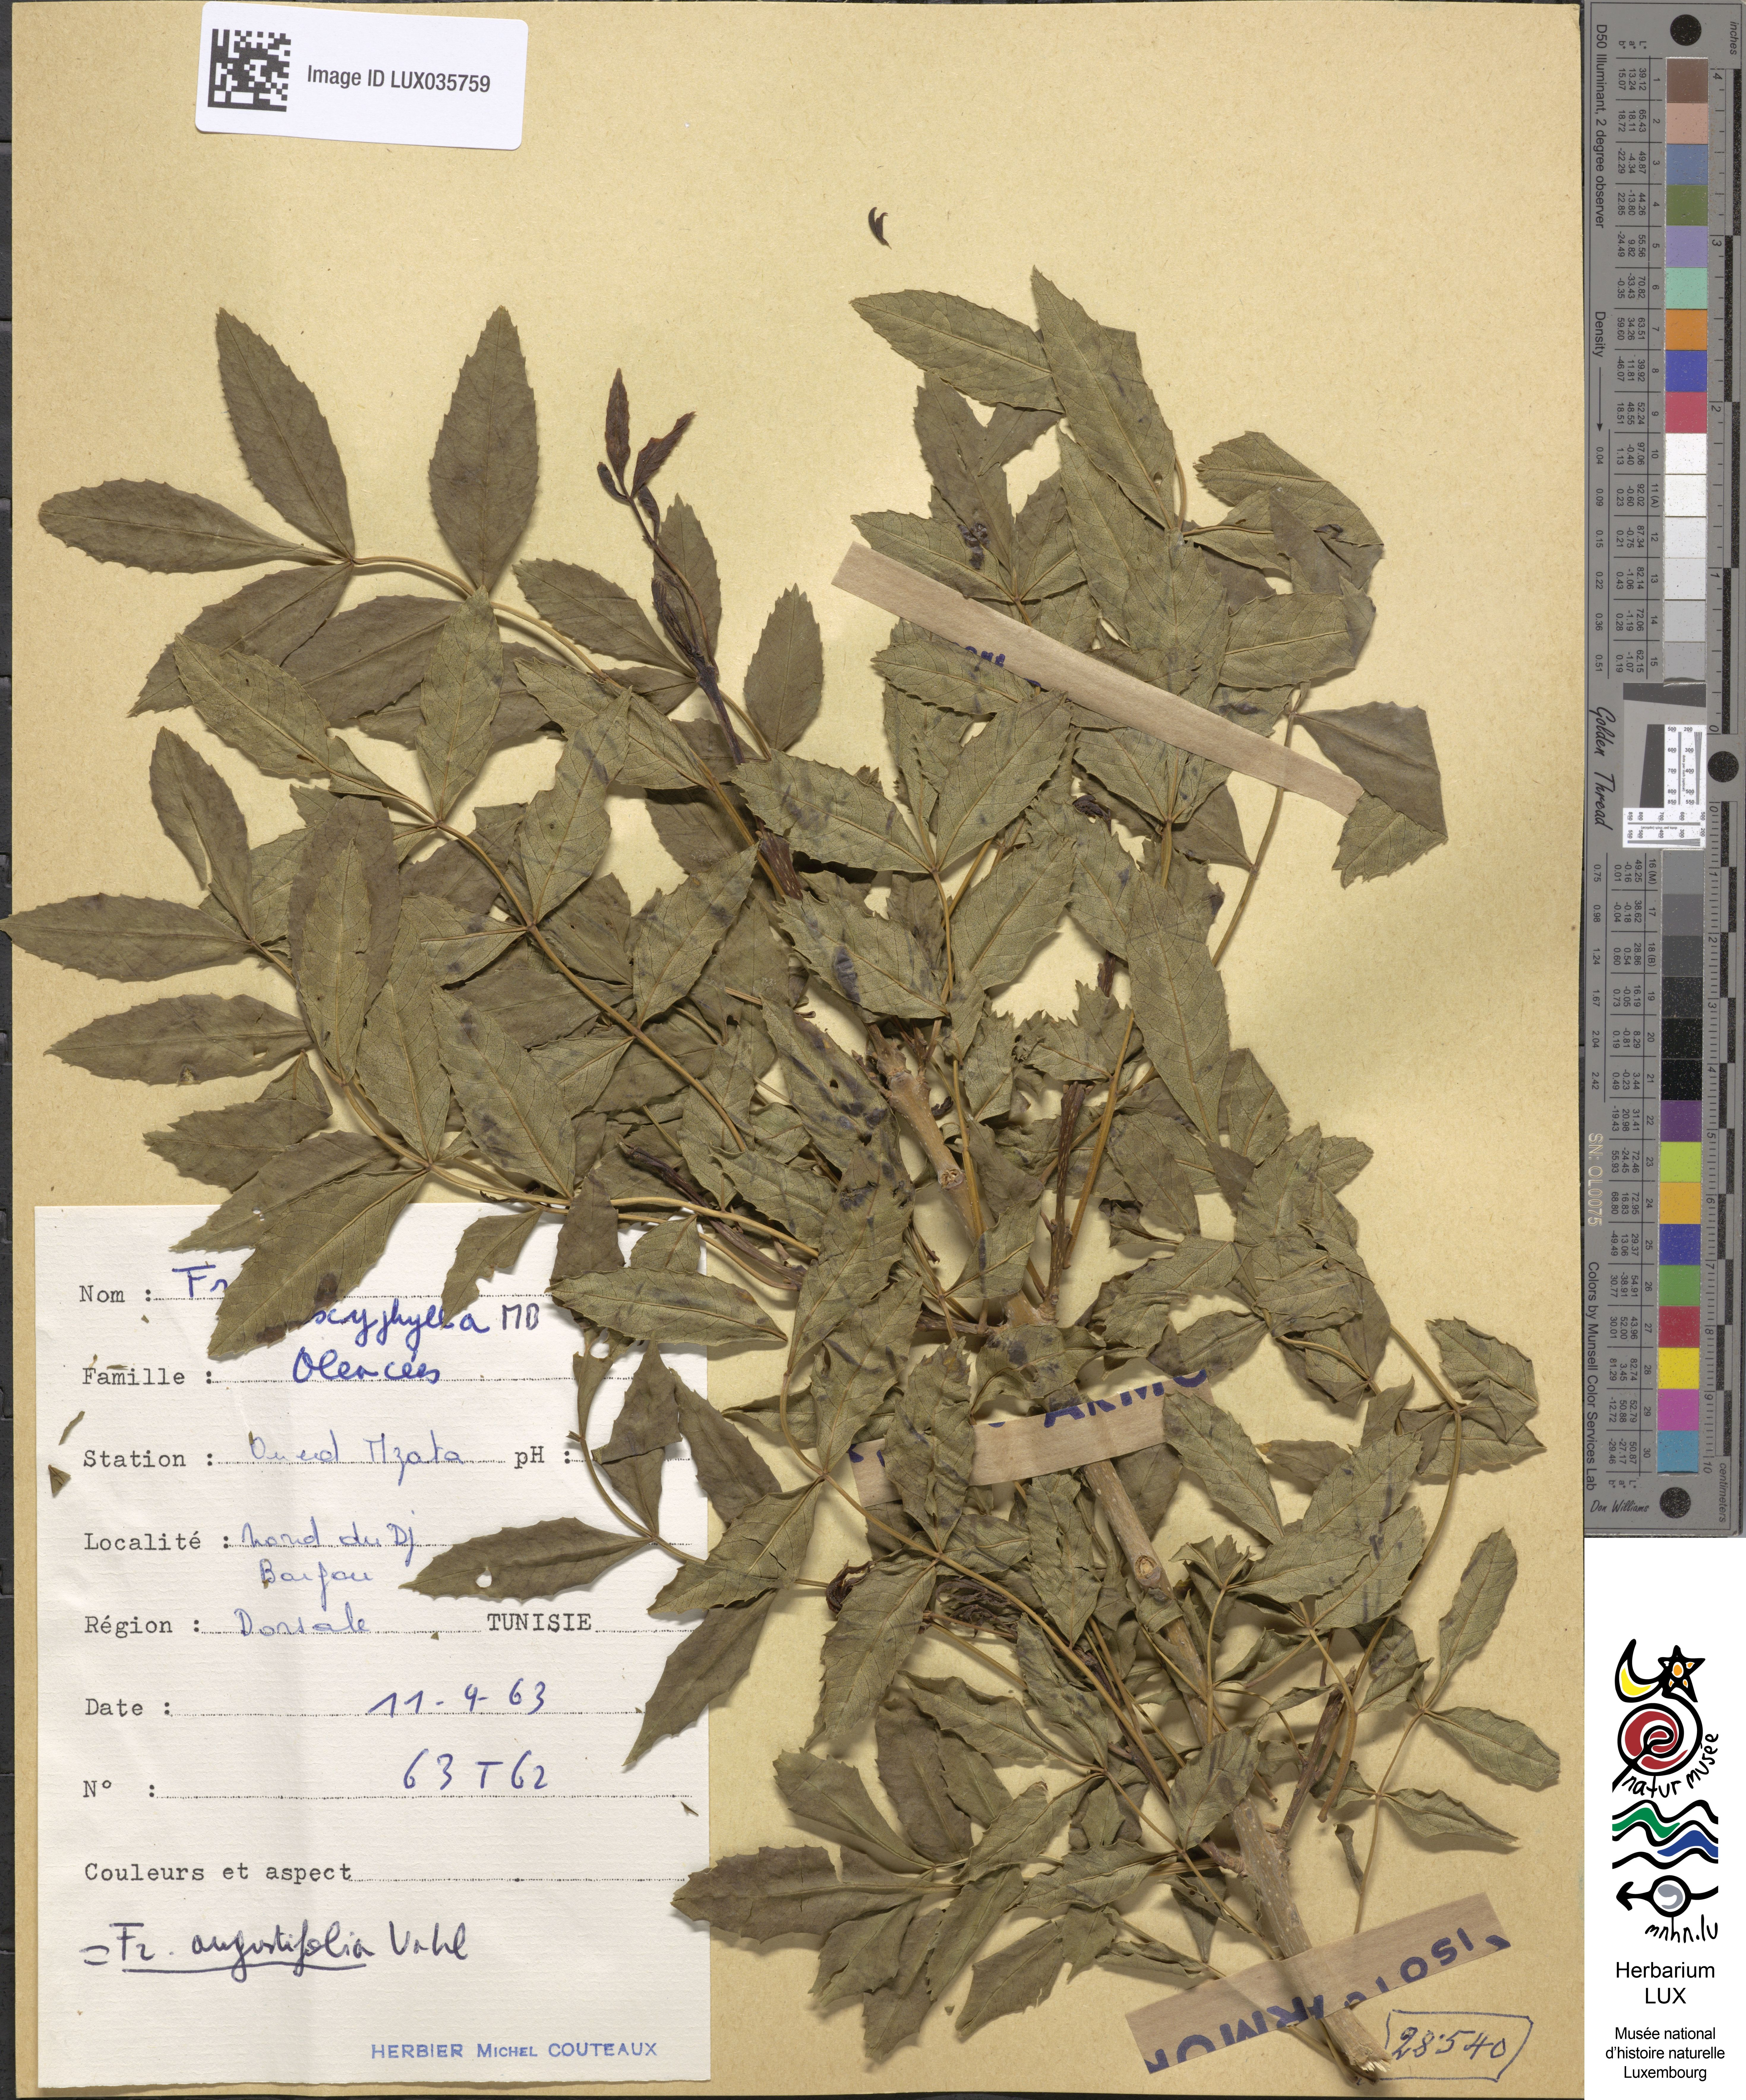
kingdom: Plantae
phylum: Tracheophyta
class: Magnoliopsida
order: Lamiales
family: Oleaceae
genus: Fraxinus
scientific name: Fraxinus oxyphylla
